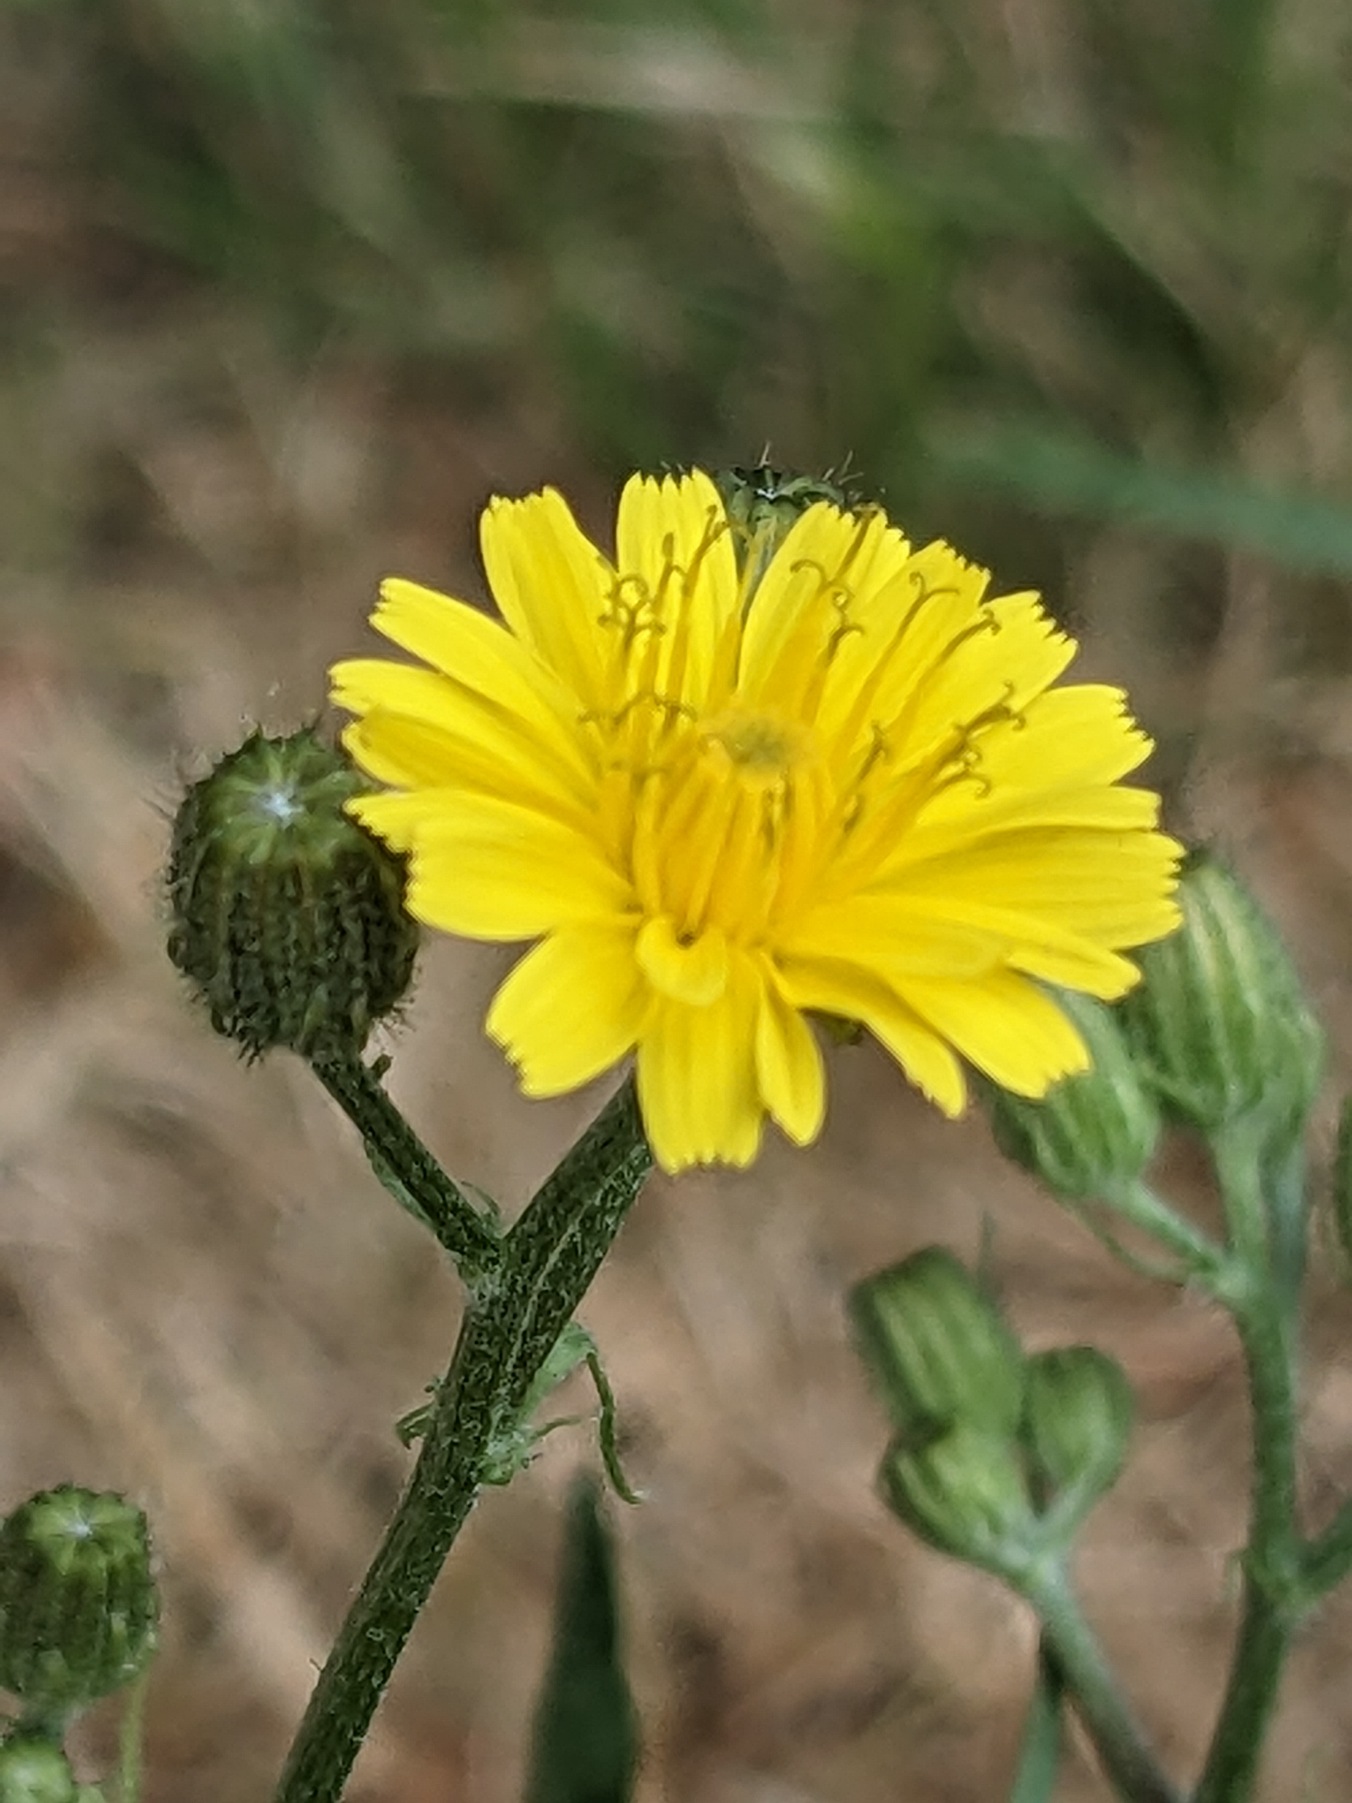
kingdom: Plantae
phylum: Tracheophyta
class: Magnoliopsida
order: Asterales
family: Asteraceae
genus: Crepis
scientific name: Crepis capillaris
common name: Grøn høgeskæg
